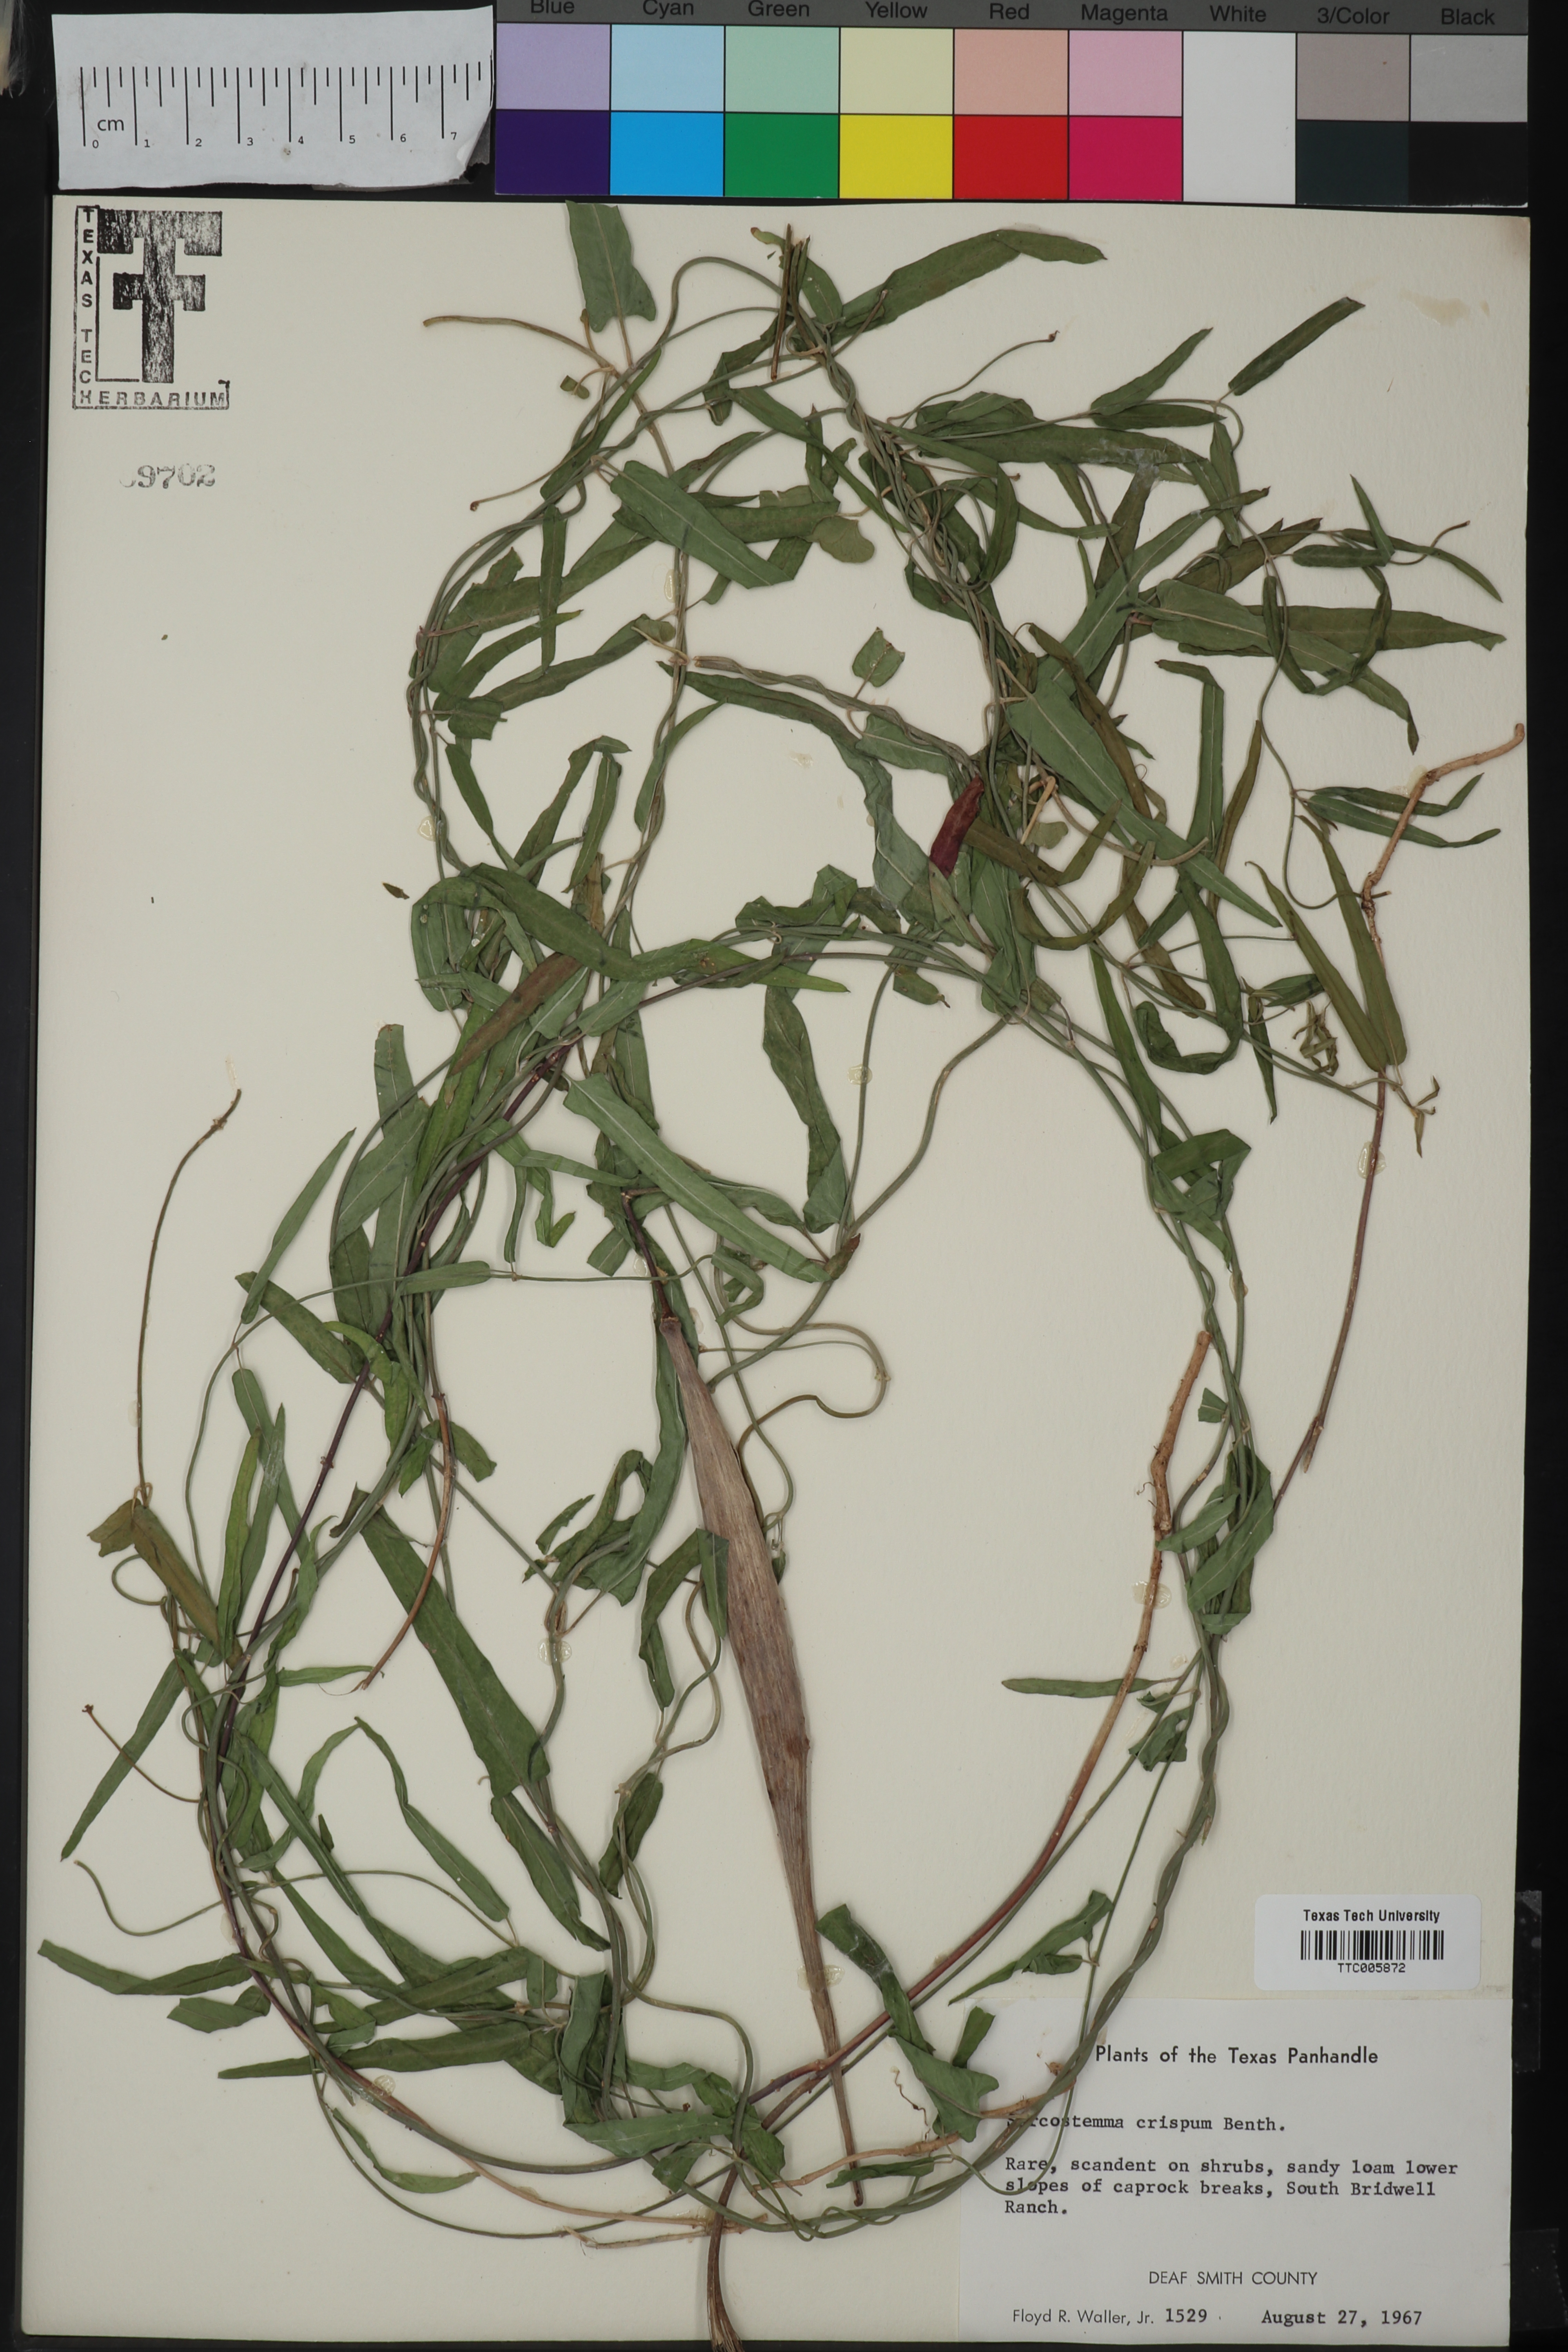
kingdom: Plantae
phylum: Tracheophyta
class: Magnoliopsida
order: Gentianales
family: Apocynaceae
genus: Funastrum
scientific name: Funastrum crispum
